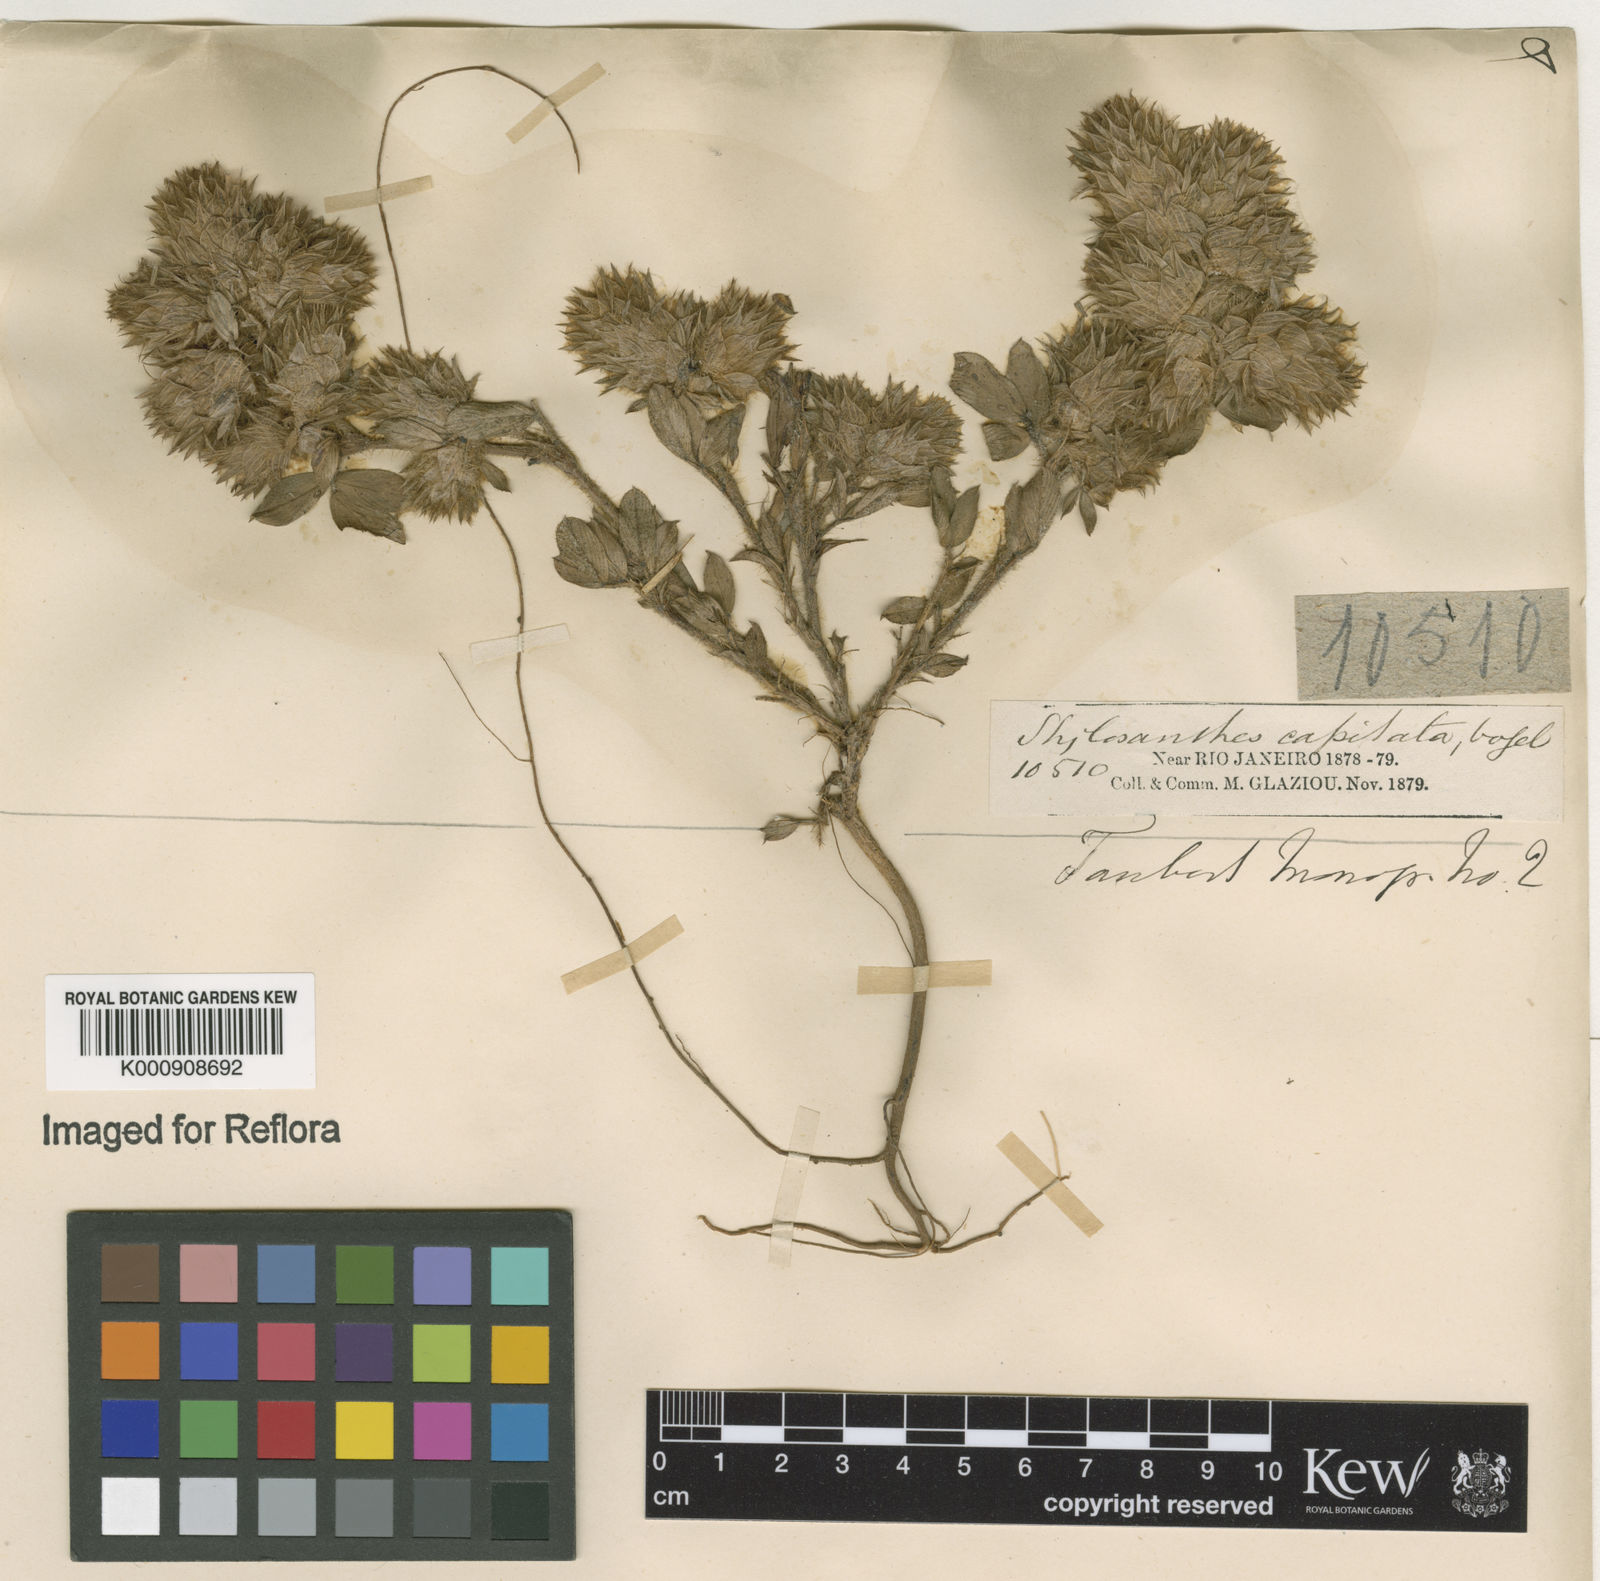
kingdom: Plantae
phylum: Tracheophyta
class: Magnoliopsida
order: Fabales
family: Fabaceae
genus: Stylosanthes
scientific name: Stylosanthes capitata
